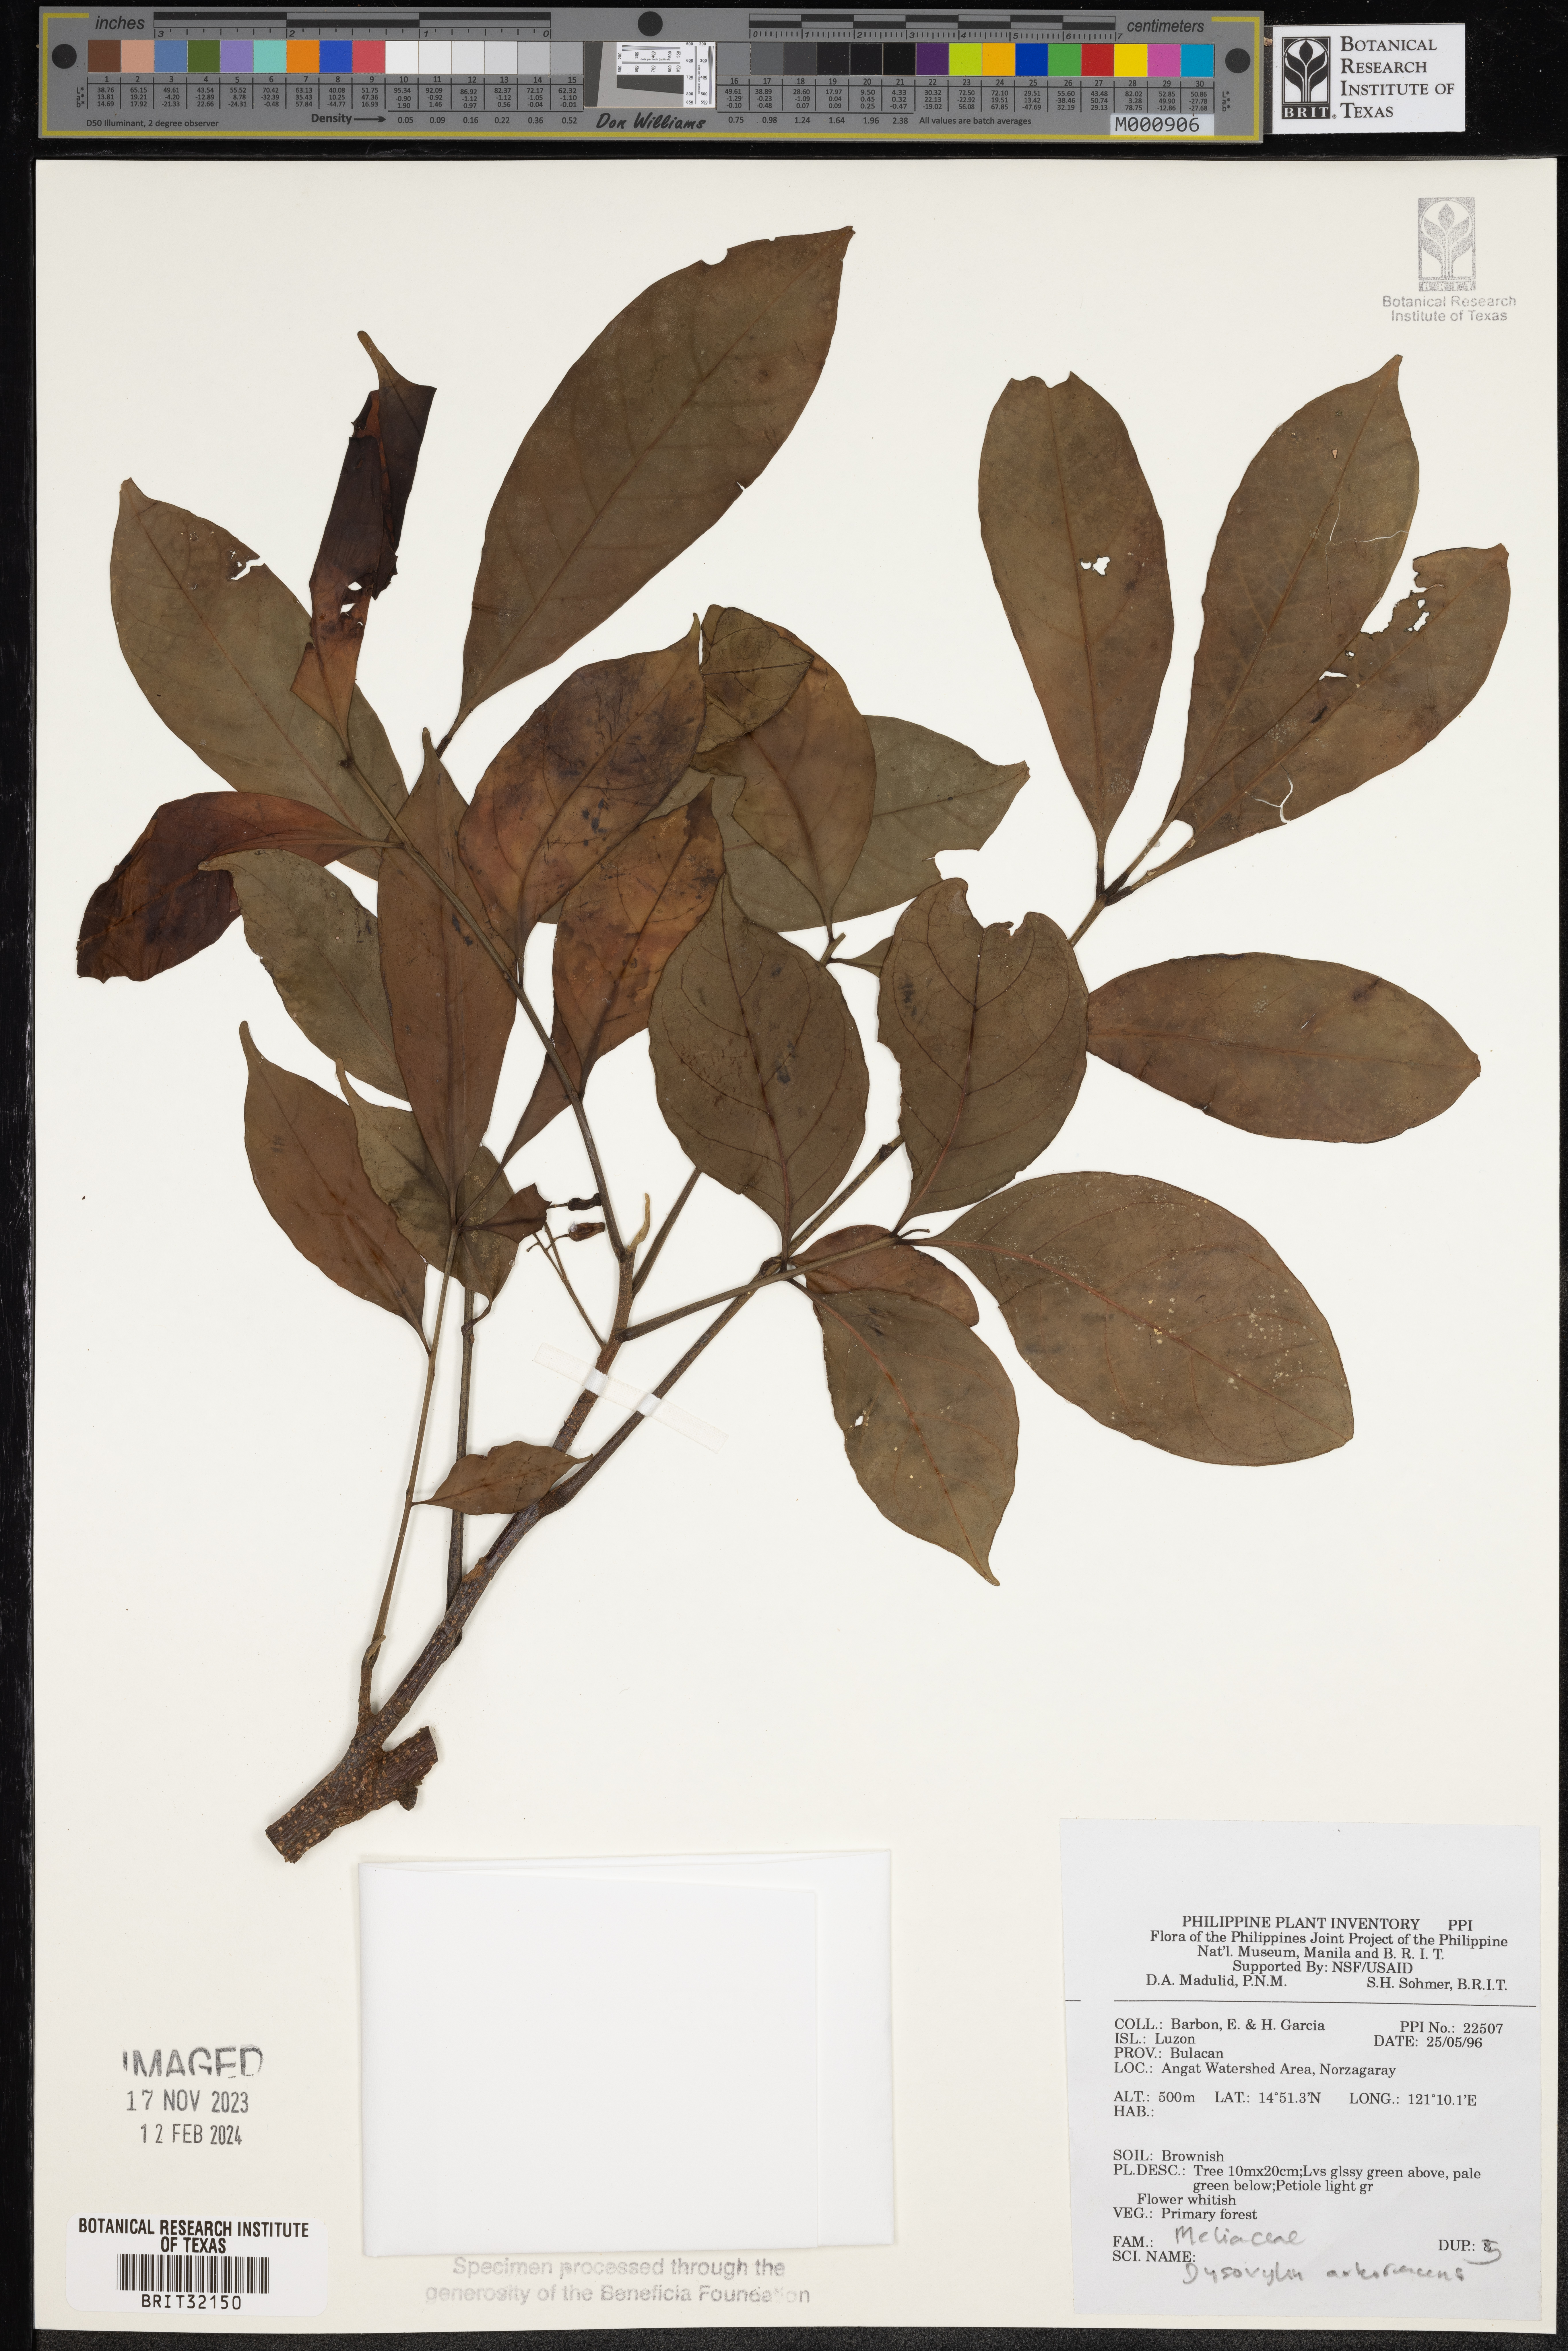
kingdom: Plantae
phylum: Tracheophyta
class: Magnoliopsida
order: Sapindales
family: Meliaceae
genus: Goniocheton
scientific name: Goniocheton arborescens
